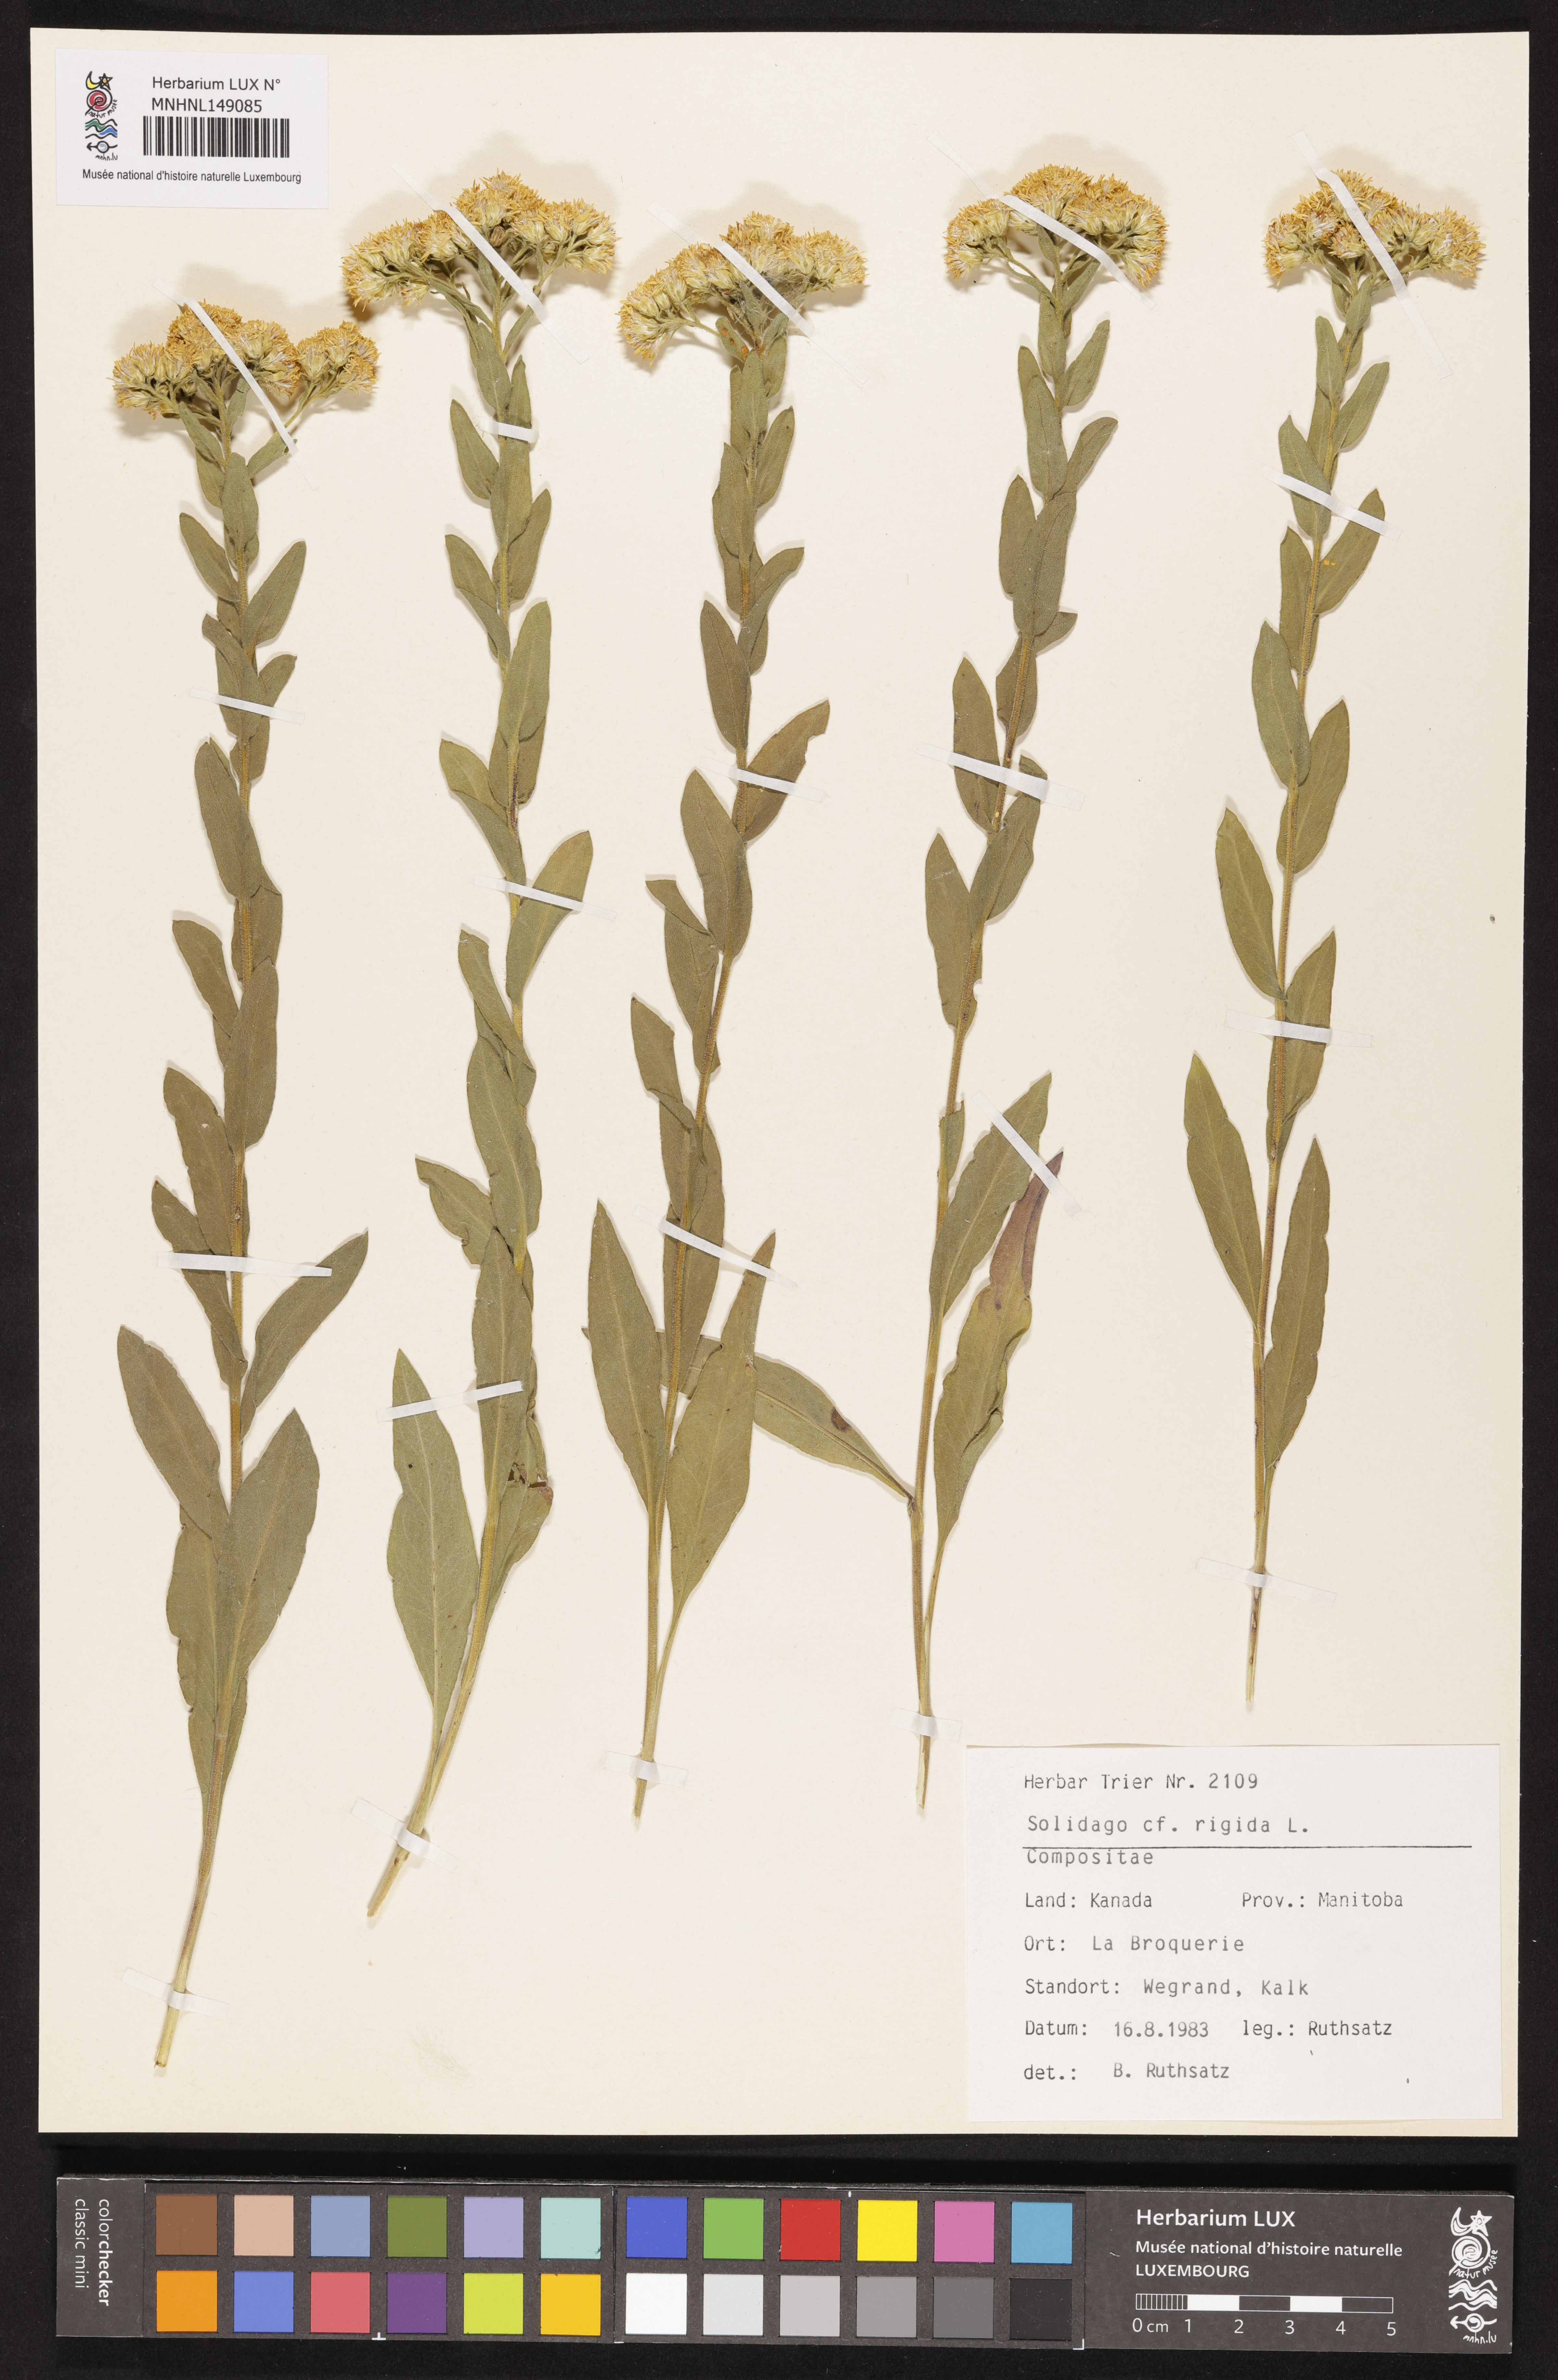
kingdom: Plantae
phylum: Tracheophyta
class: Magnoliopsida
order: Asterales
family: Asteraceae
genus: Solidago
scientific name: Solidago rigida
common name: Rigid goldenrod
